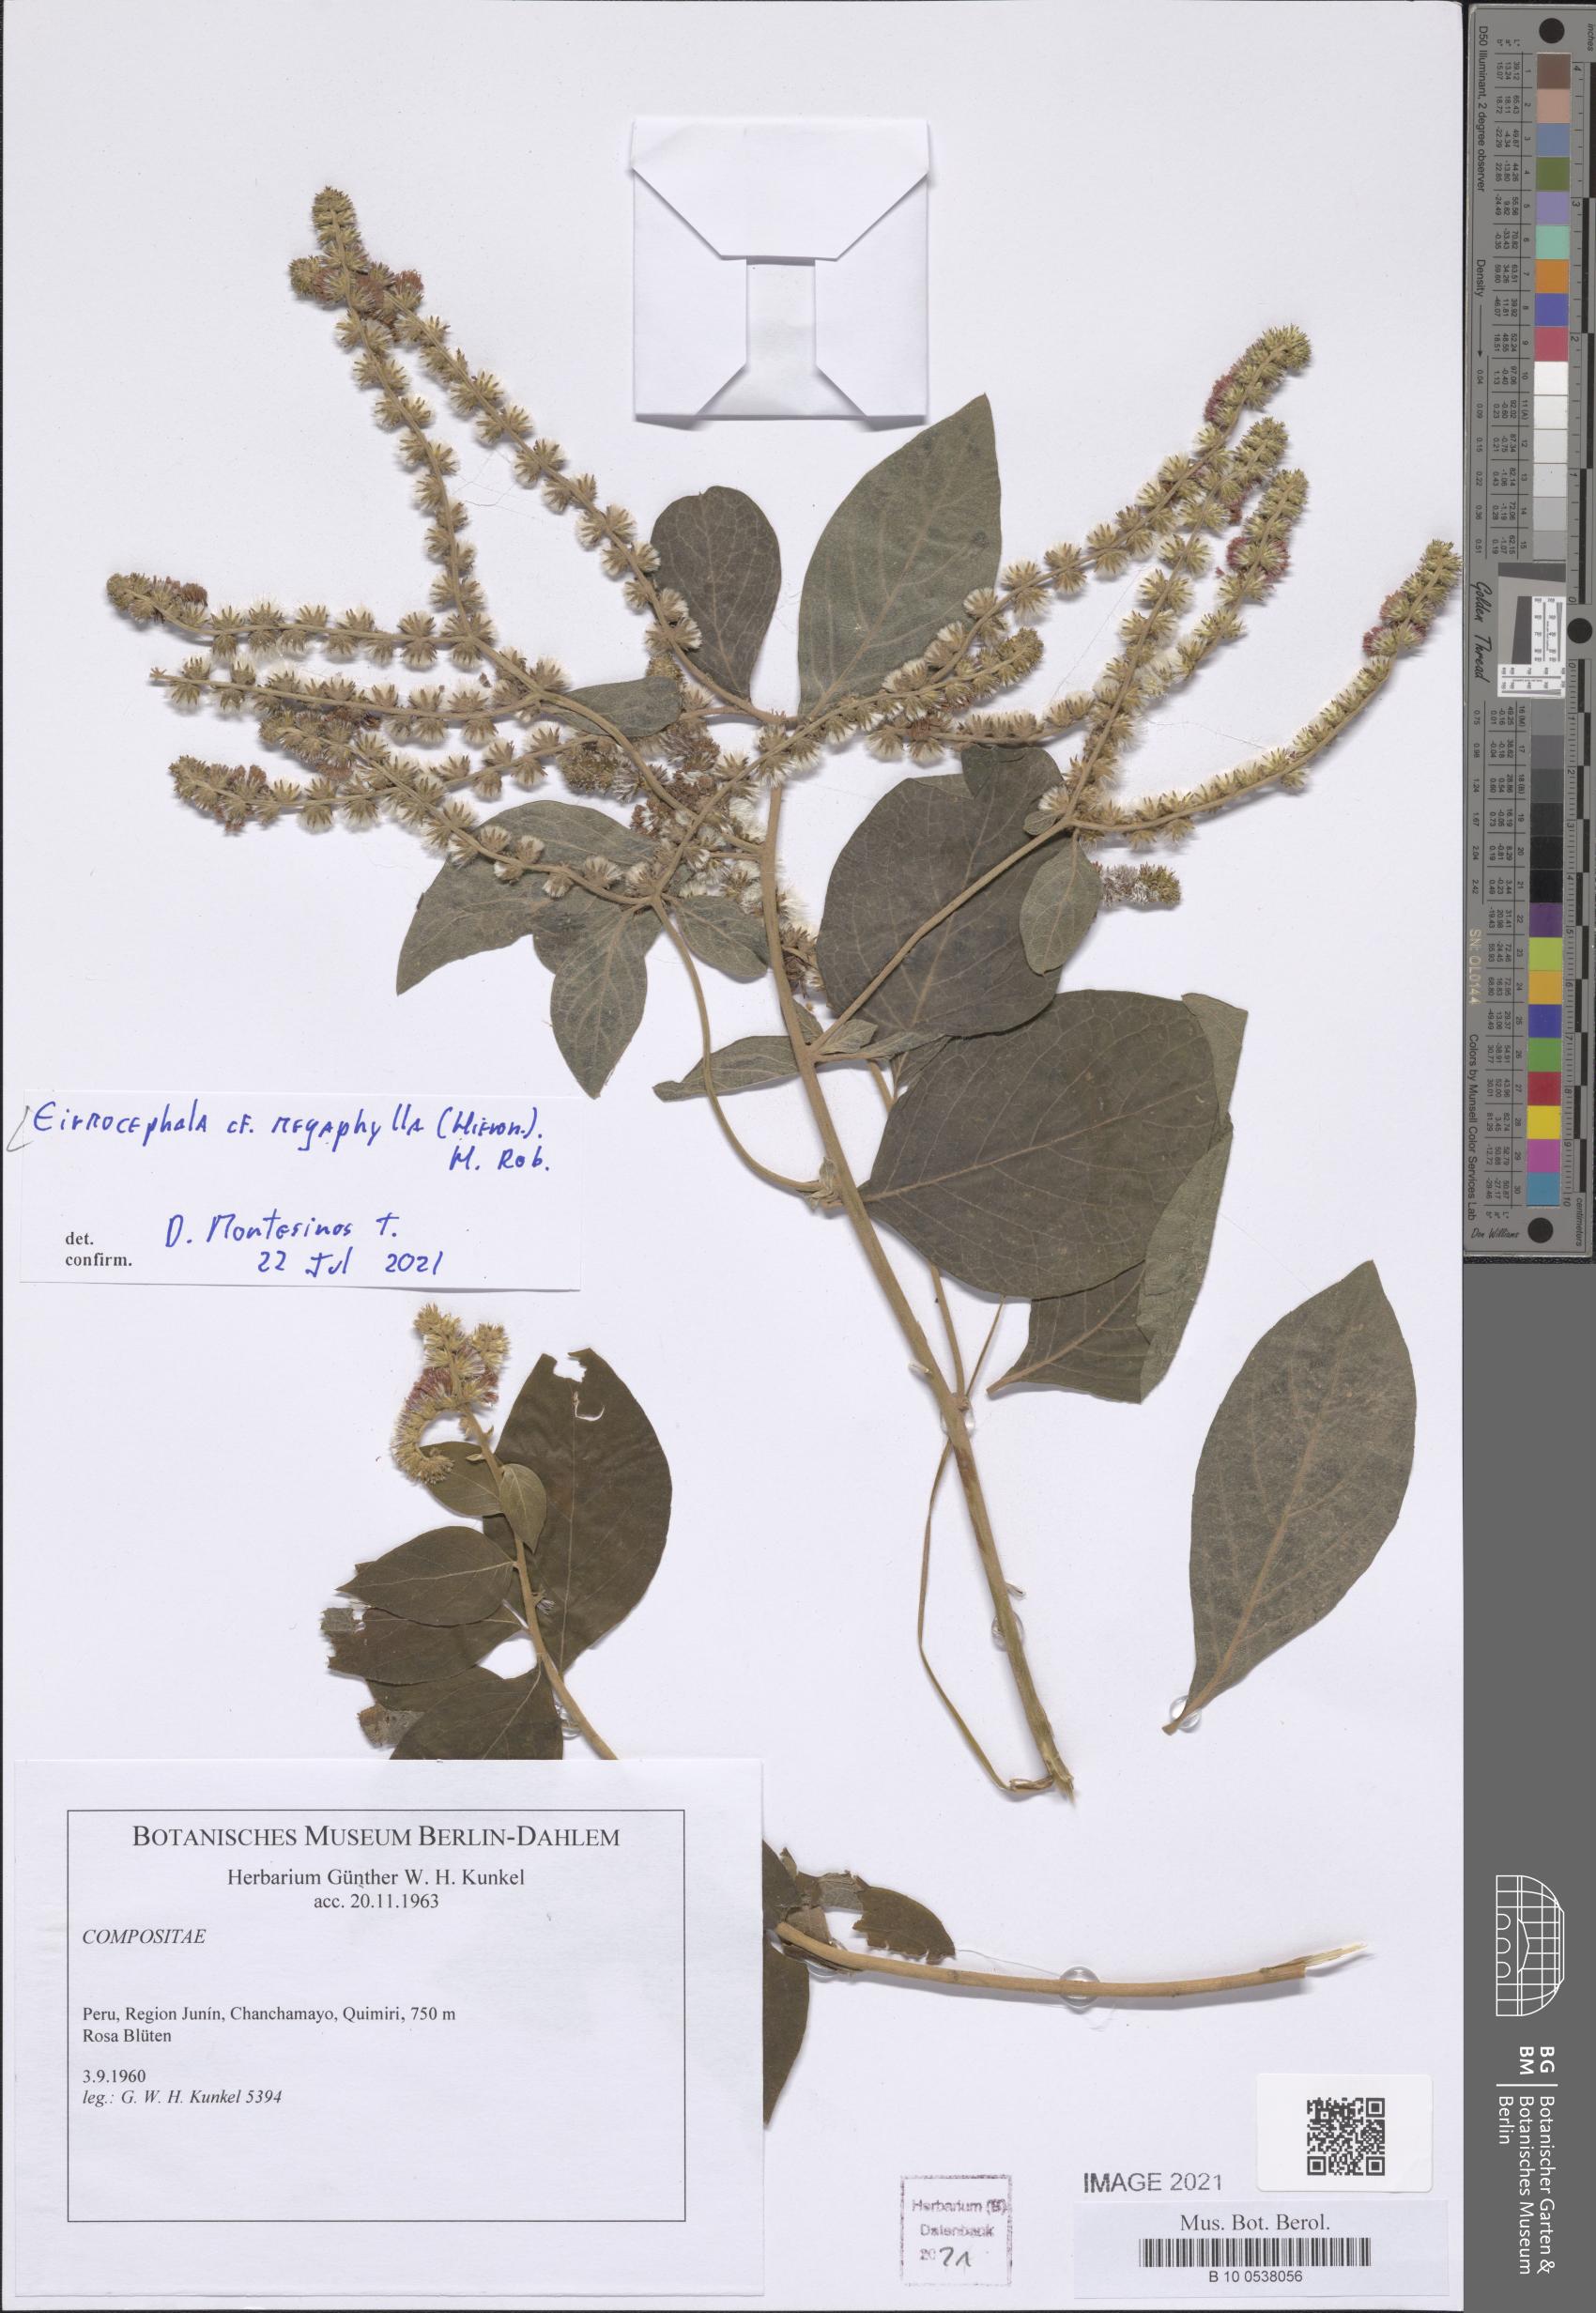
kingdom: Plantae
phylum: Tracheophyta
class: Magnoliopsida
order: Asterales
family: Asteraceae
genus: Eirmocephala
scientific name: Eirmocephala megaphylla
